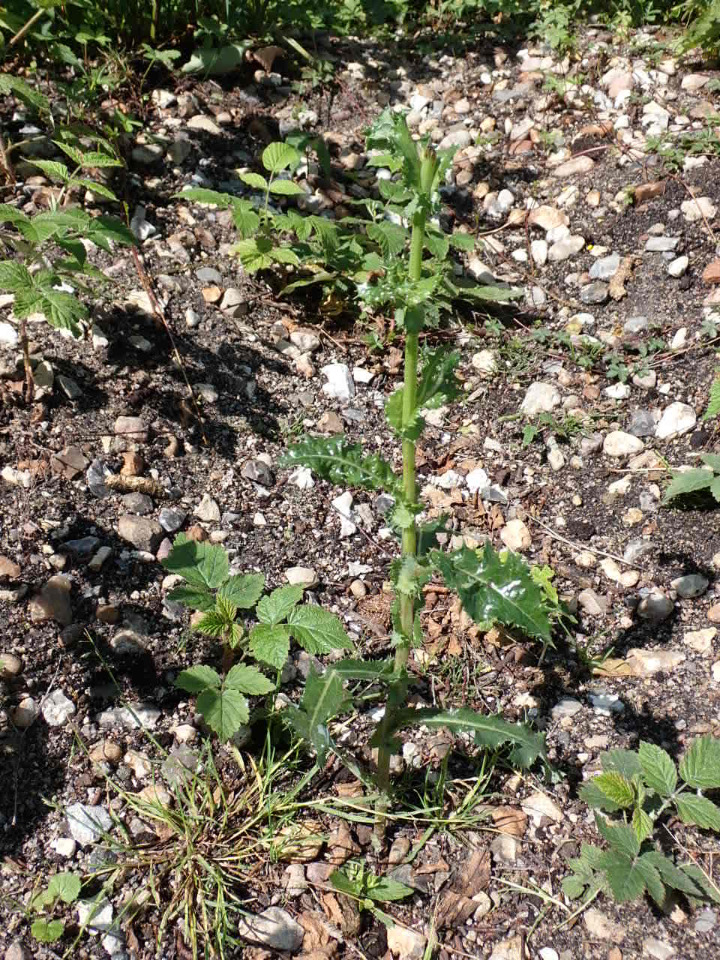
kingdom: Plantae
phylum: Tracheophyta
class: Magnoliopsida
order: Asterales
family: Asteraceae
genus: Sonchus
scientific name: Sonchus asper
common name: Ru svinemælk
